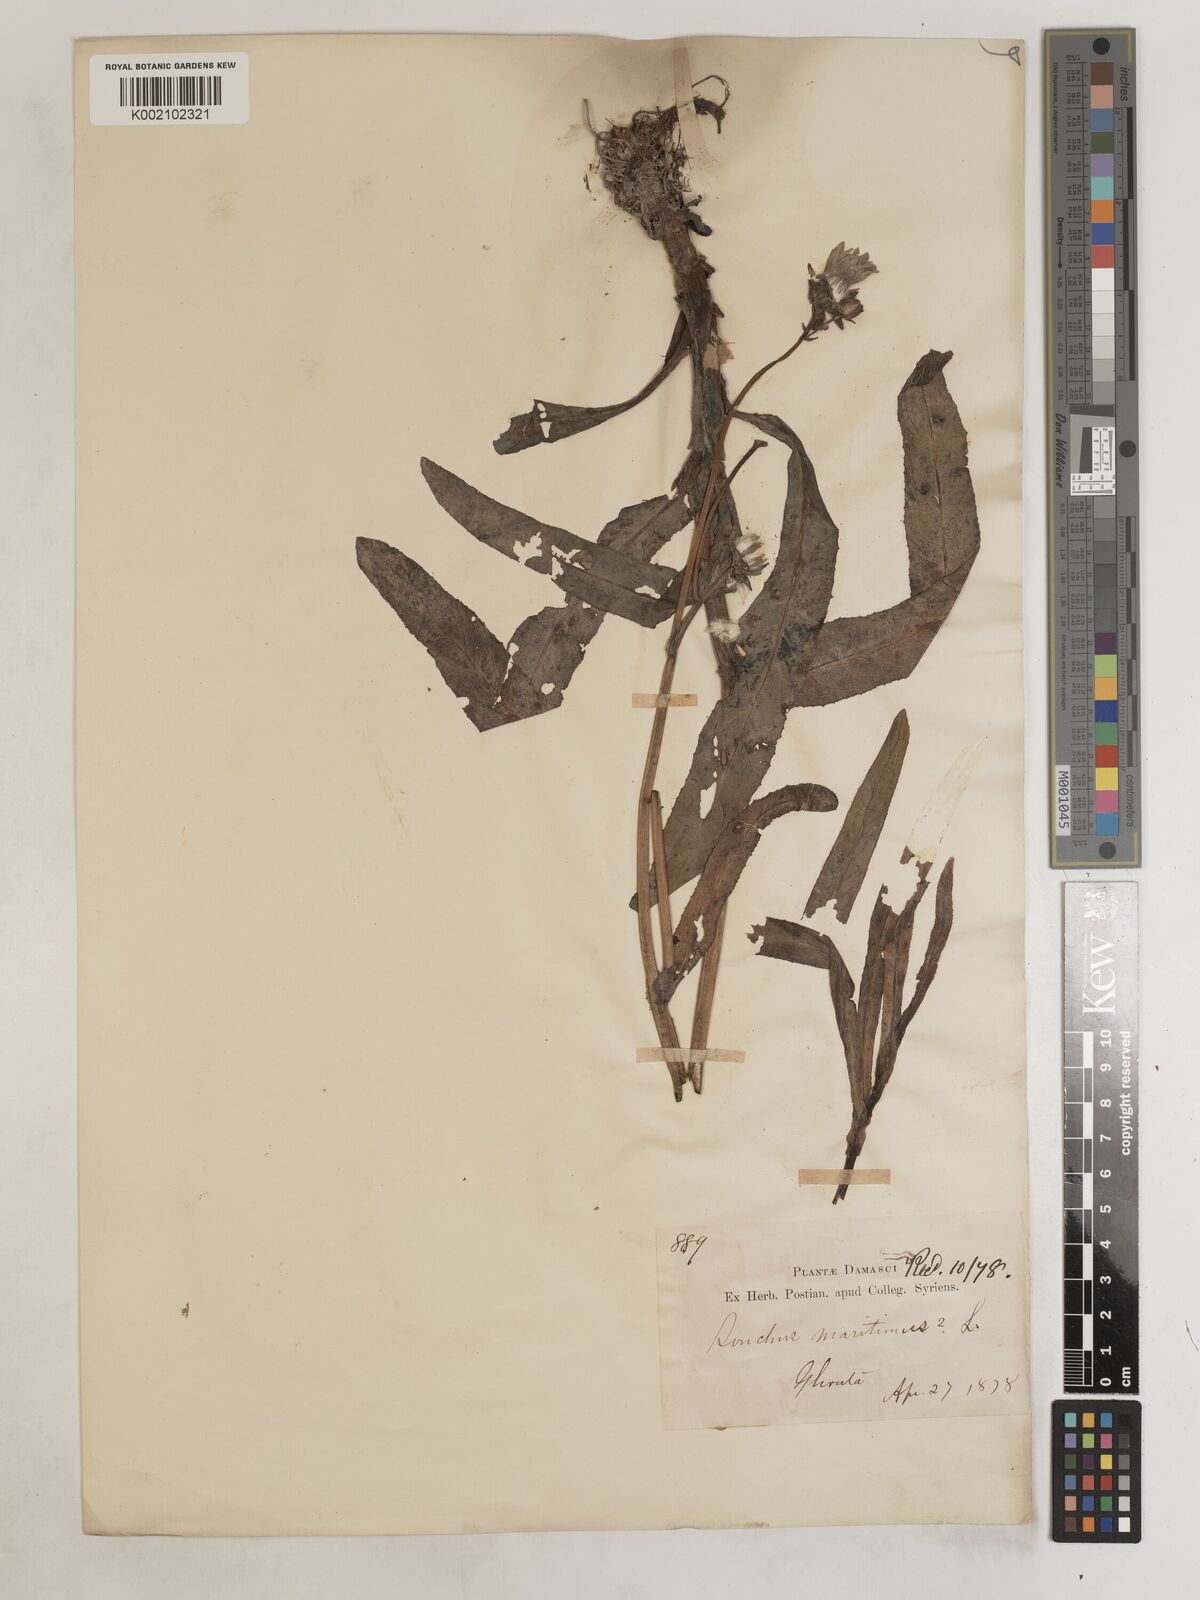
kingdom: Plantae
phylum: Tracheophyta
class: Magnoliopsida
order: Asterales
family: Asteraceae
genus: Sonchus
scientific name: Sonchus maritimus
